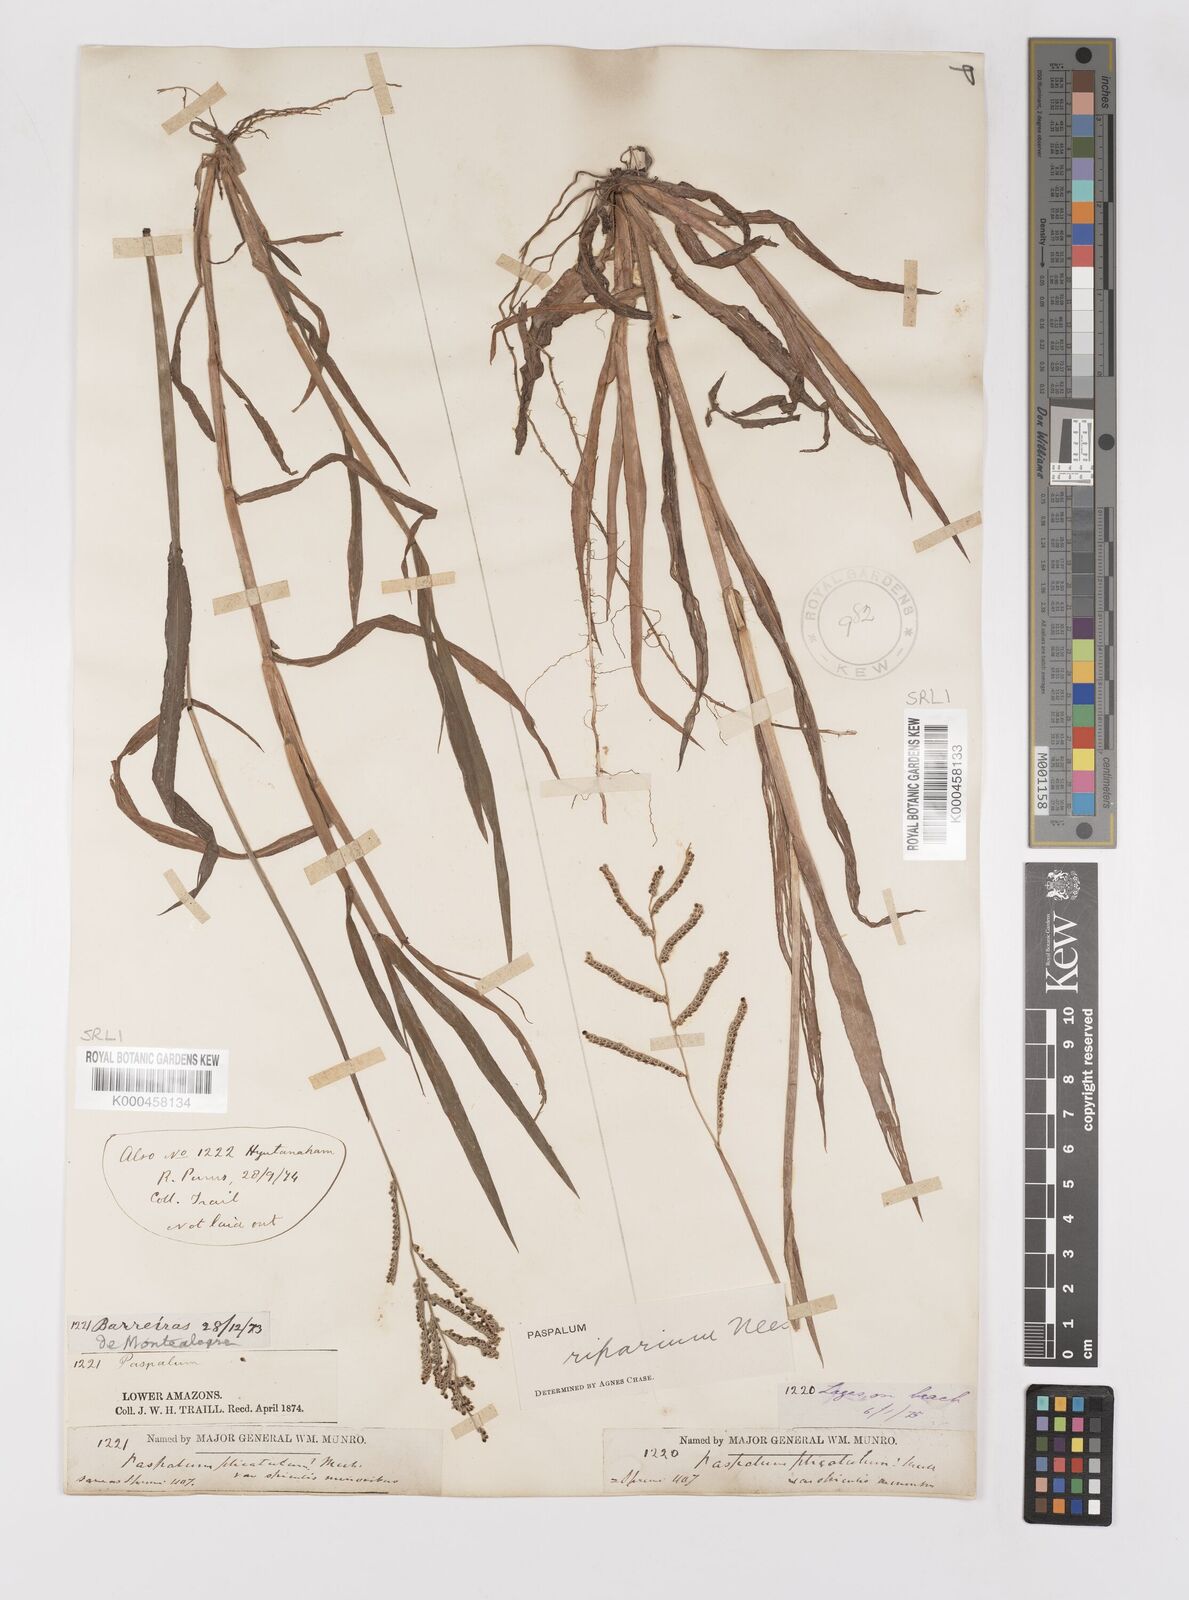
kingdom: Plantae
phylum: Tracheophyta
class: Liliopsida
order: Poales
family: Poaceae
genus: Paspalum
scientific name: Paspalum
